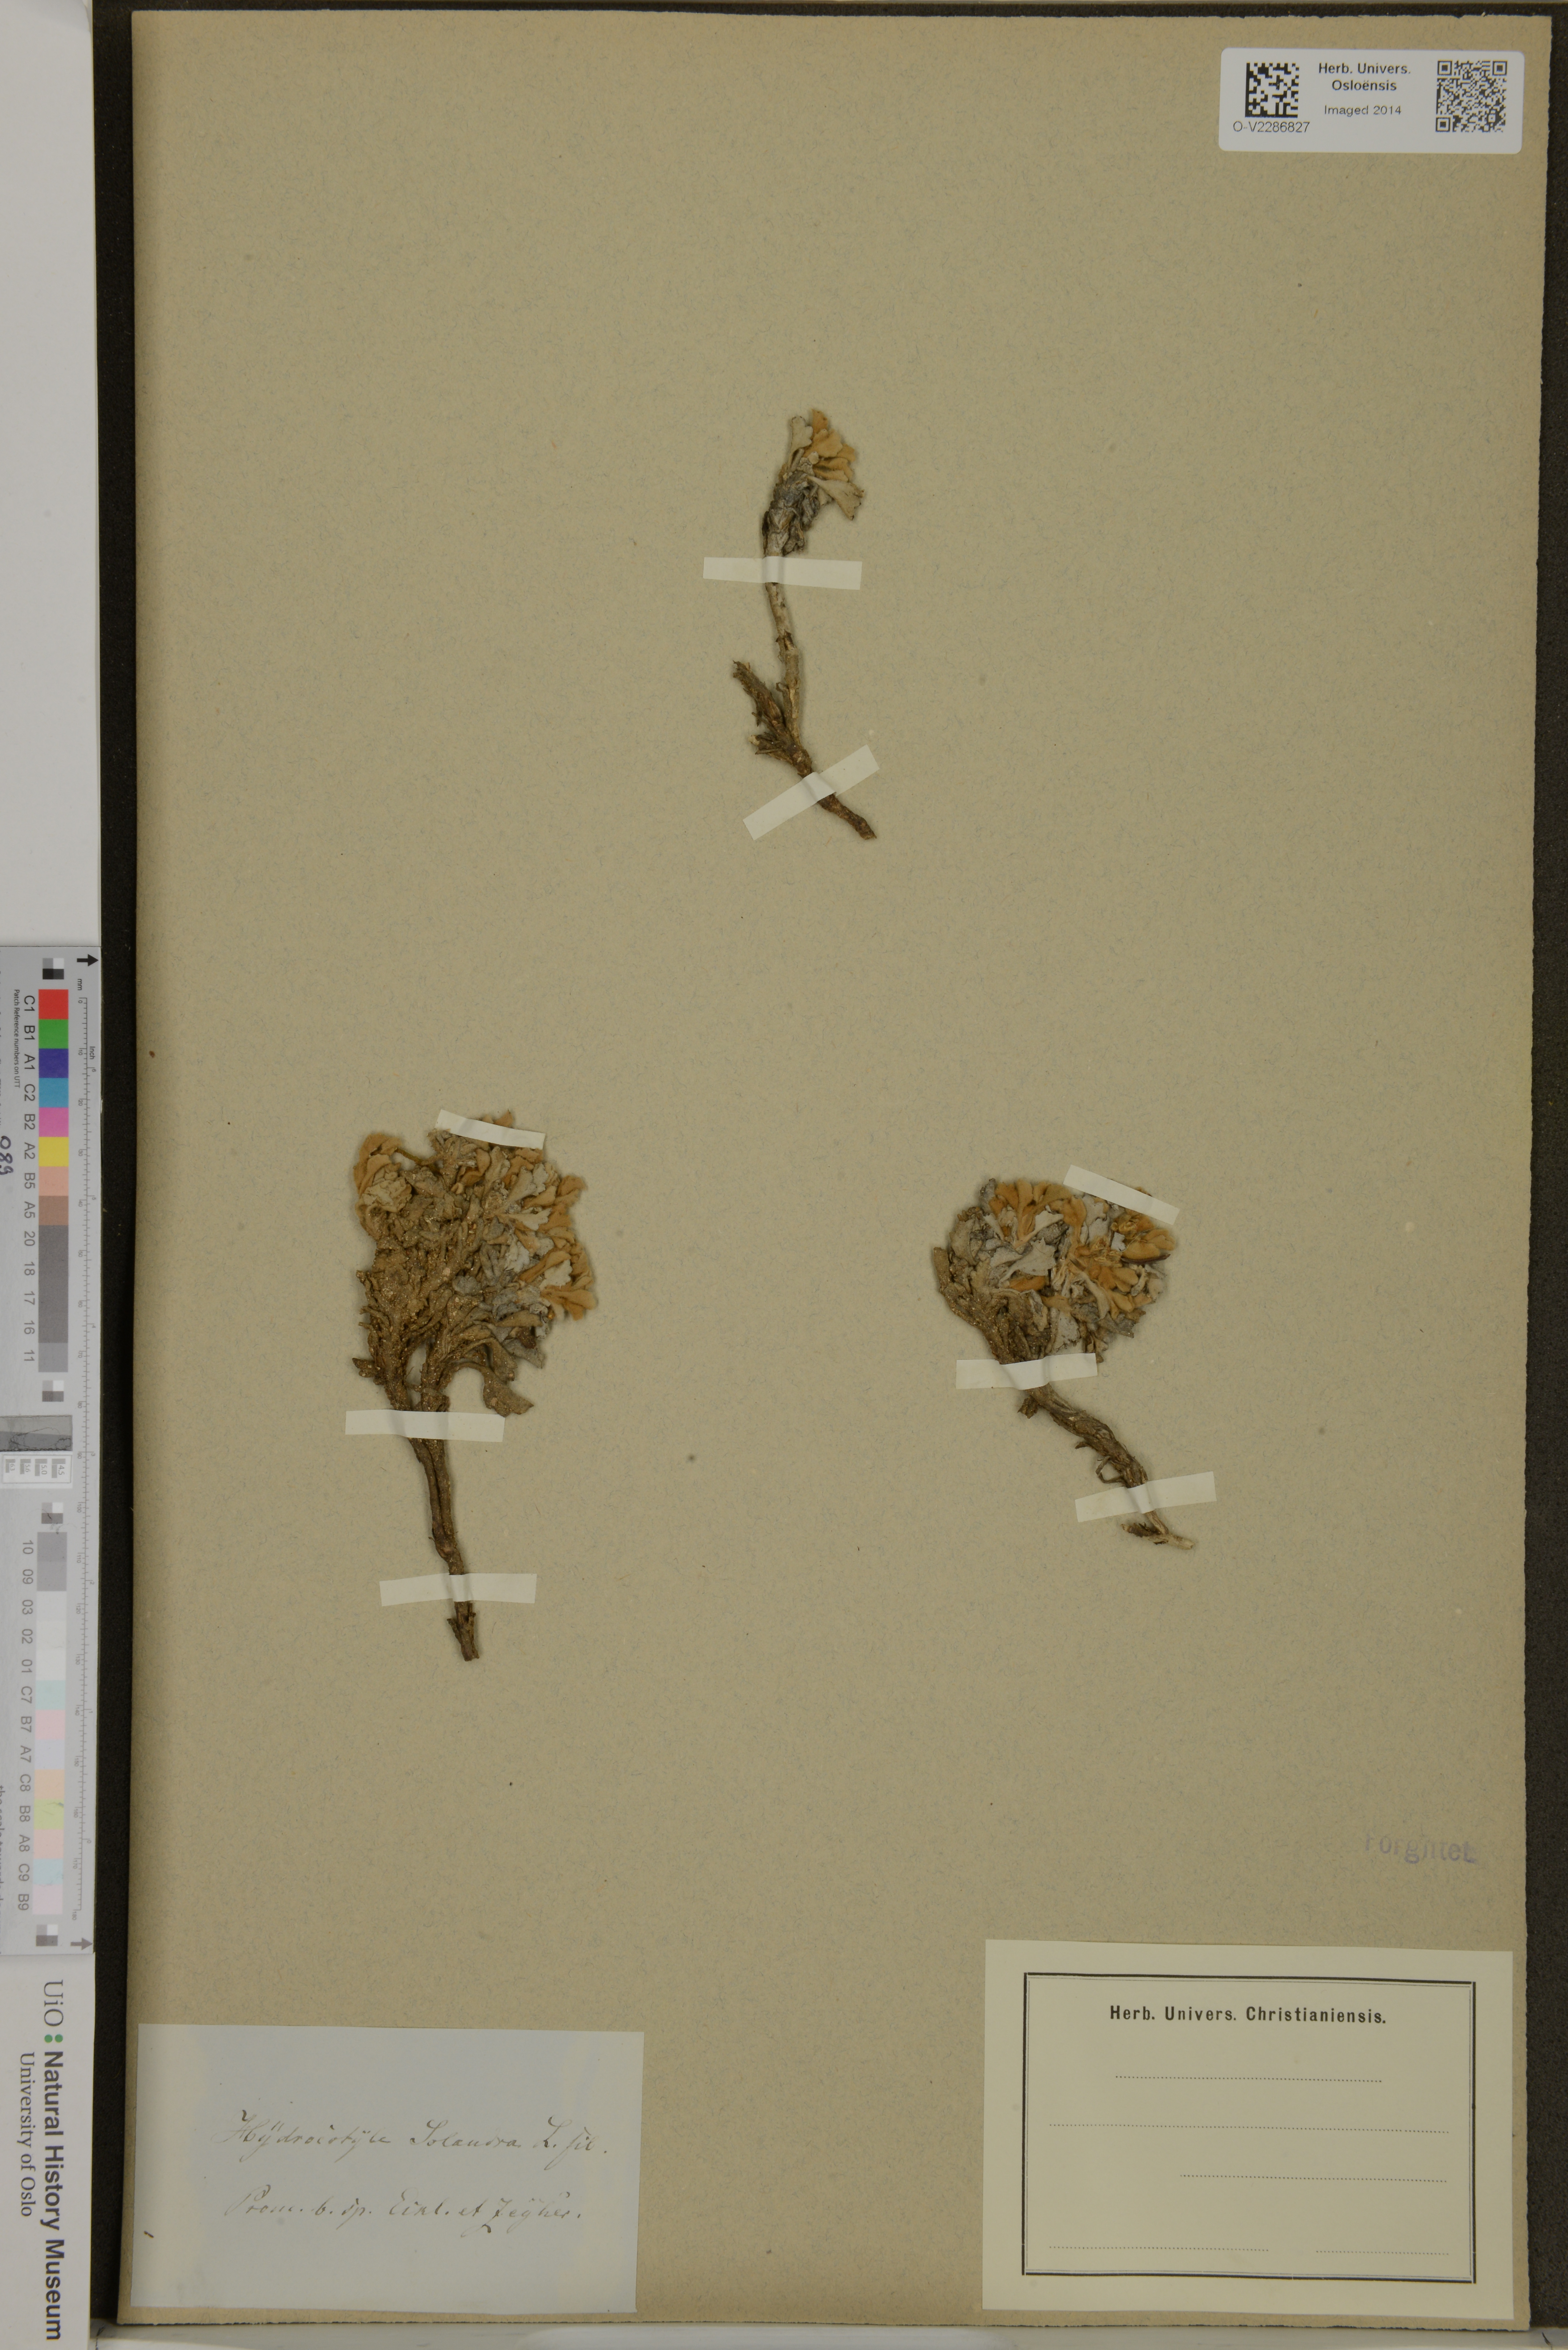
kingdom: Plantae
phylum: Tracheophyta
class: Magnoliopsida
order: Apiales
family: Apiaceae
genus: Centella
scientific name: Centella capensis
